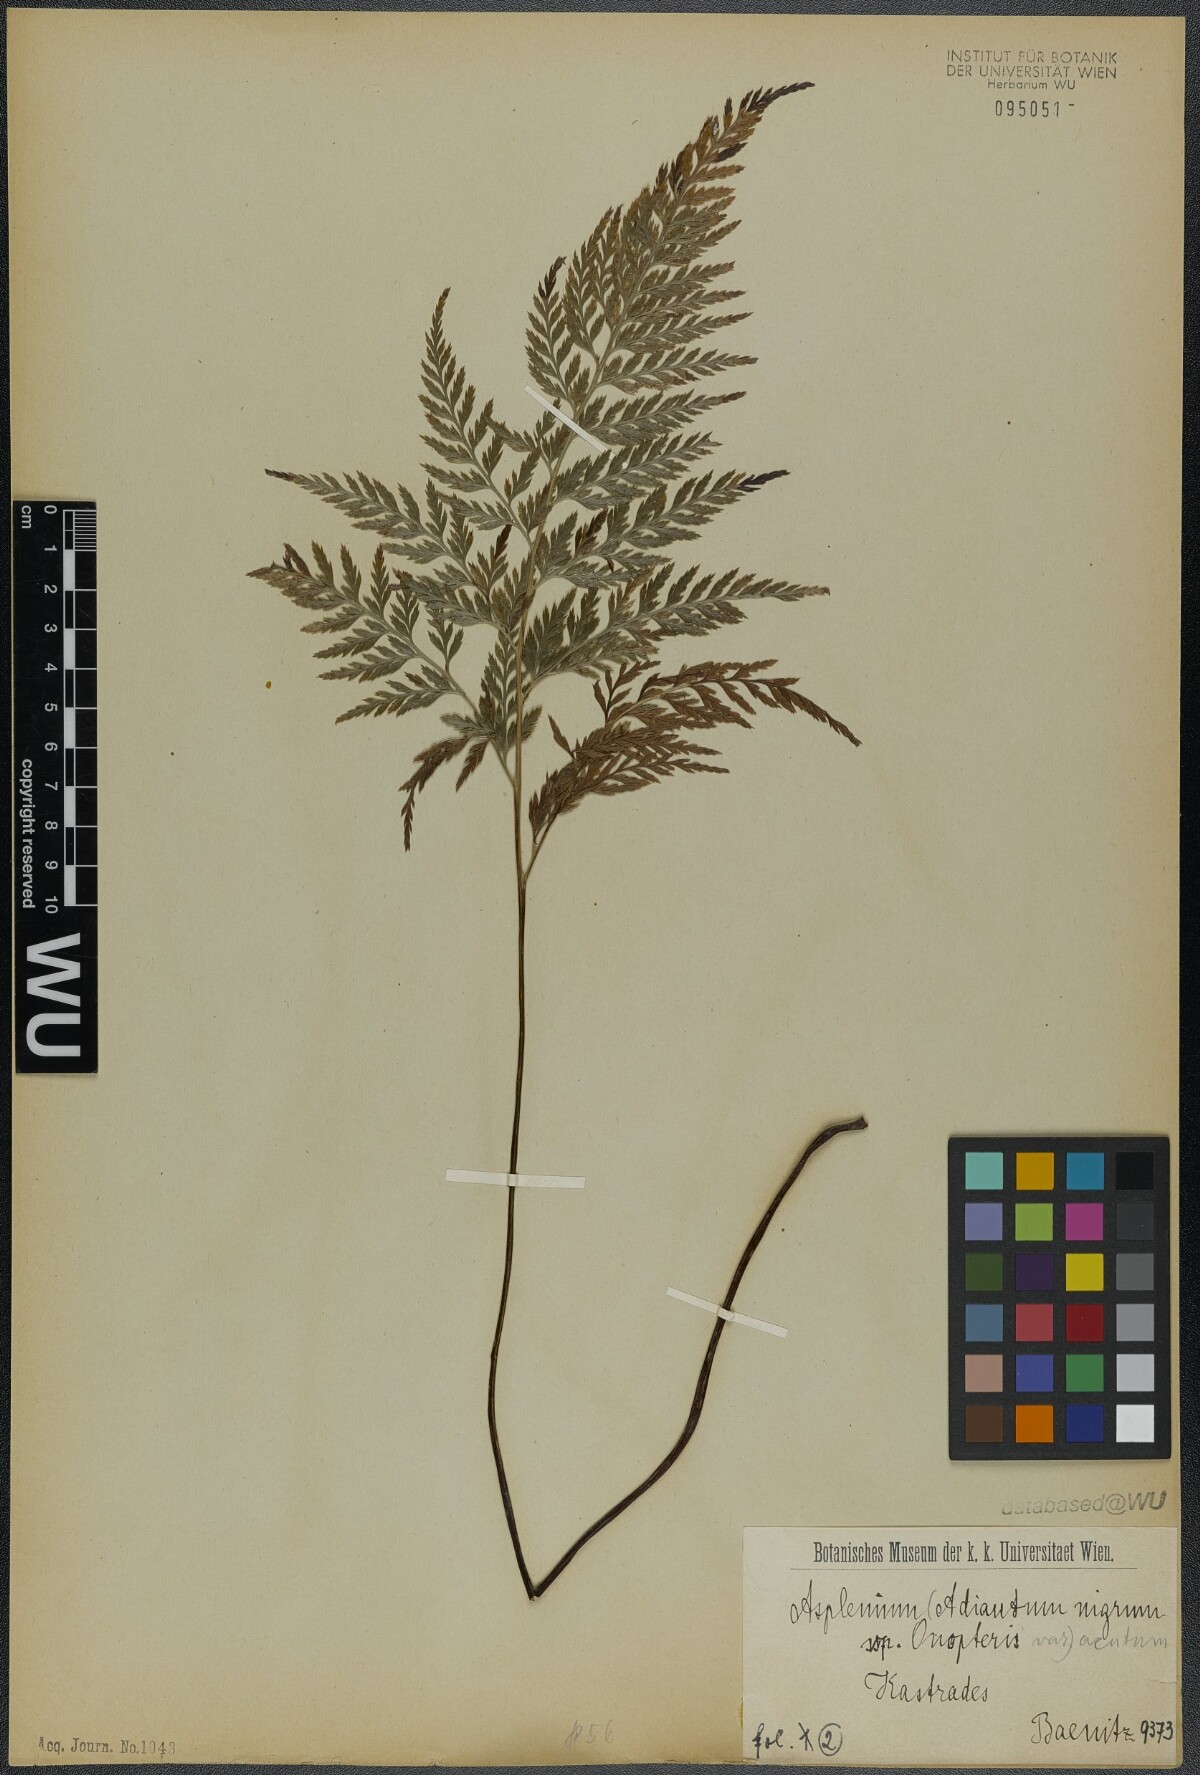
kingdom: Plantae
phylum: Tracheophyta
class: Polypodiopsida
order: Polypodiales
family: Aspleniaceae
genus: Asplenium
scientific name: Asplenium onopteris
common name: Irish spleenwort
